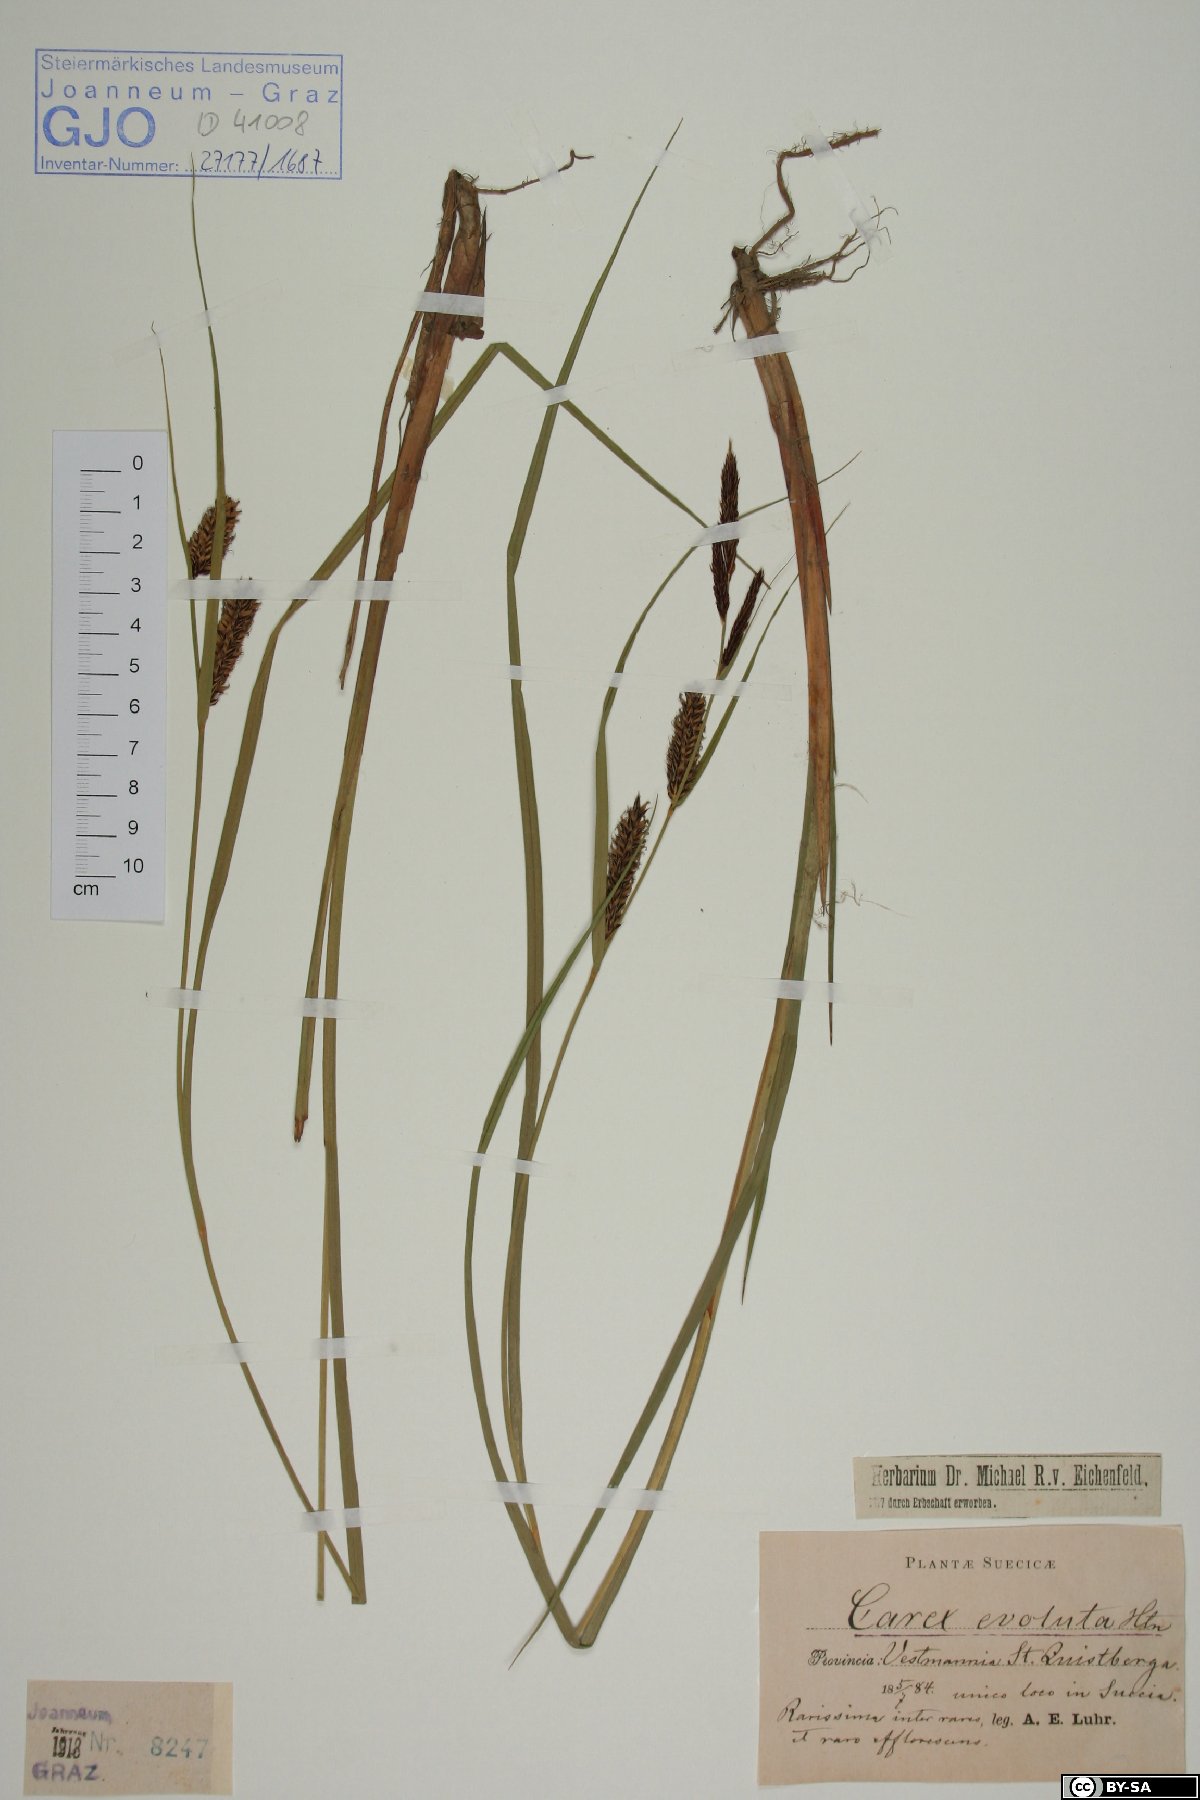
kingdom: Plantae
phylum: Tracheophyta
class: Liliopsida
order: Poales
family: Cyperaceae
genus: Carex
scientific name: Carex evoluta
